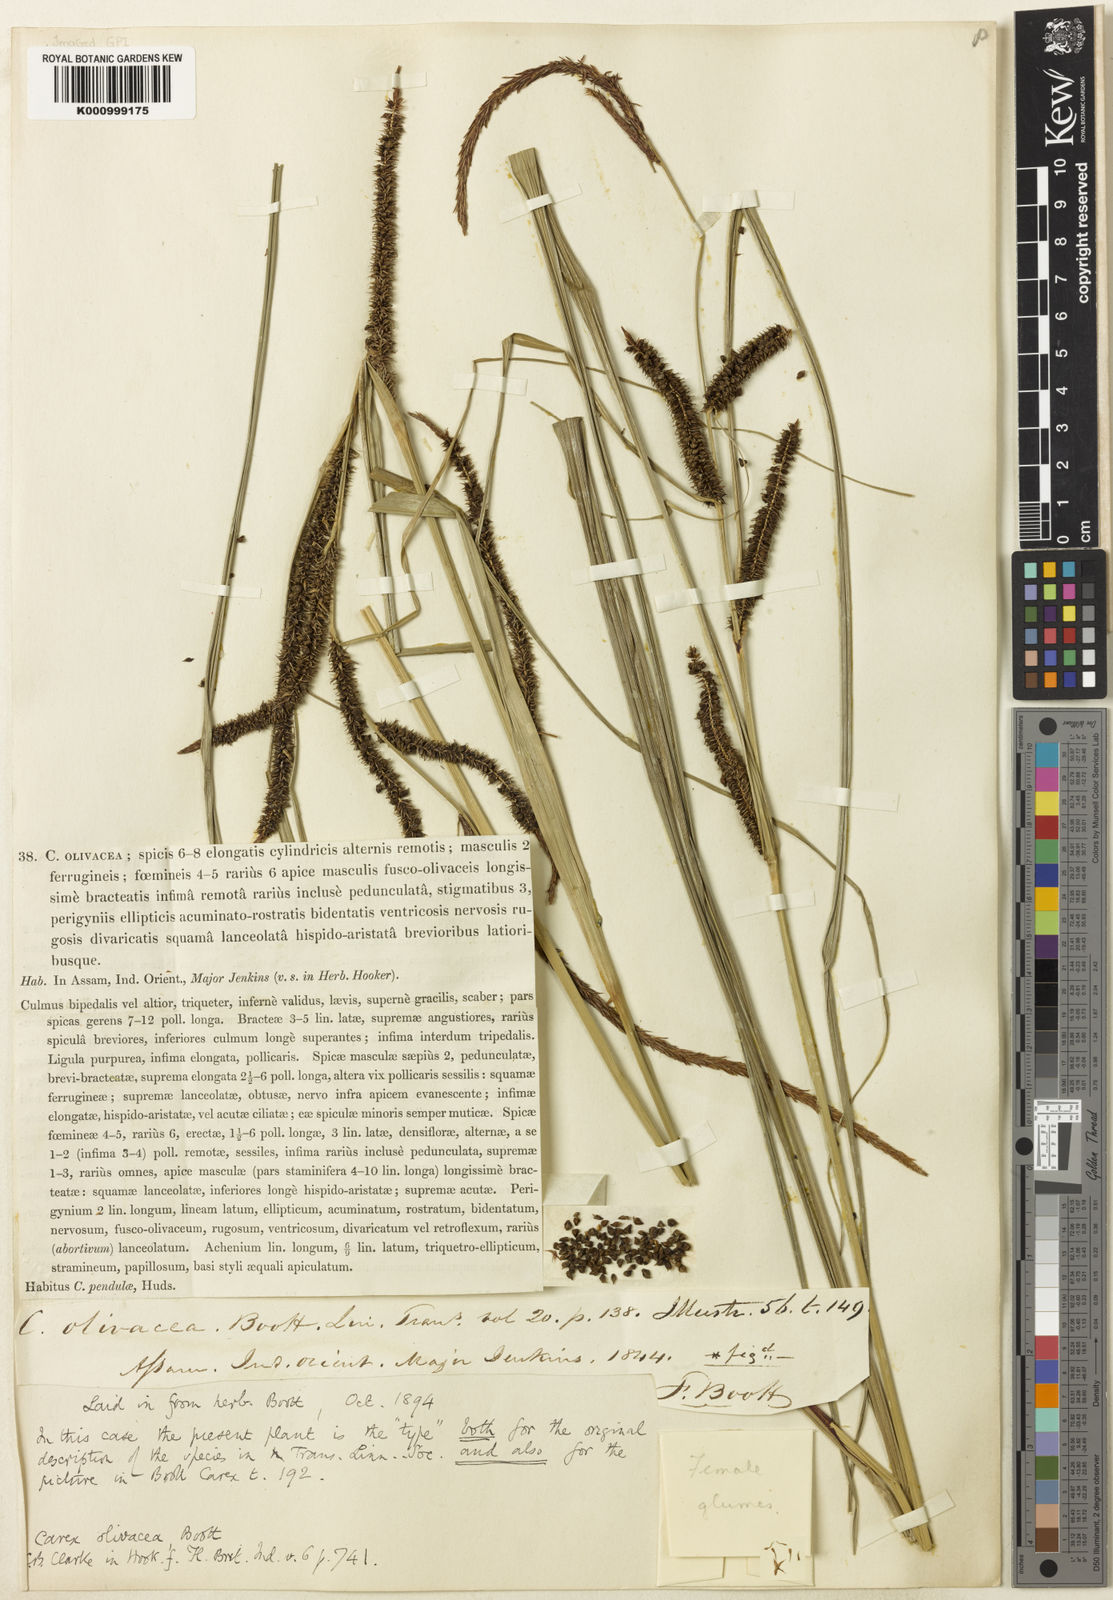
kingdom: Plantae
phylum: Tracheophyta
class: Liliopsida
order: Poales
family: Cyperaceae
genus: Carex
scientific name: Carex olivacea
